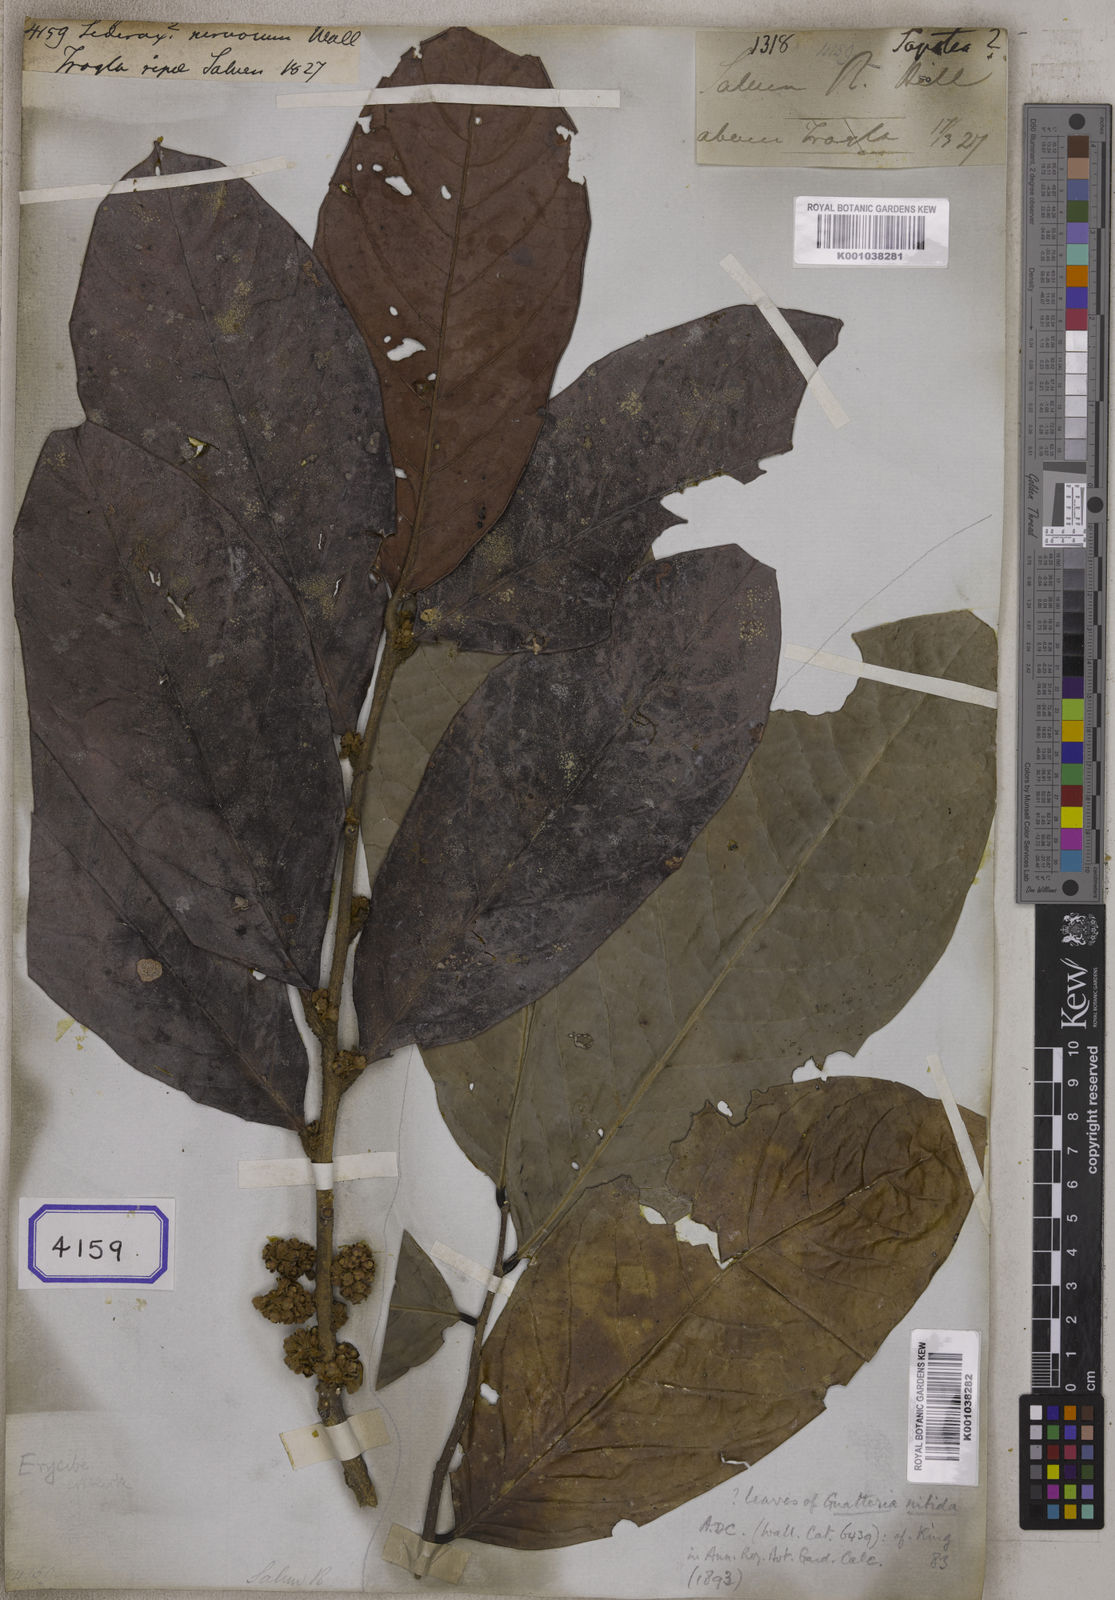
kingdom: Plantae
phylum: Tracheophyta
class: Magnoliopsida
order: Ericales
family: Sapotaceae
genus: Sideroxylon
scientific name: Sideroxylon
